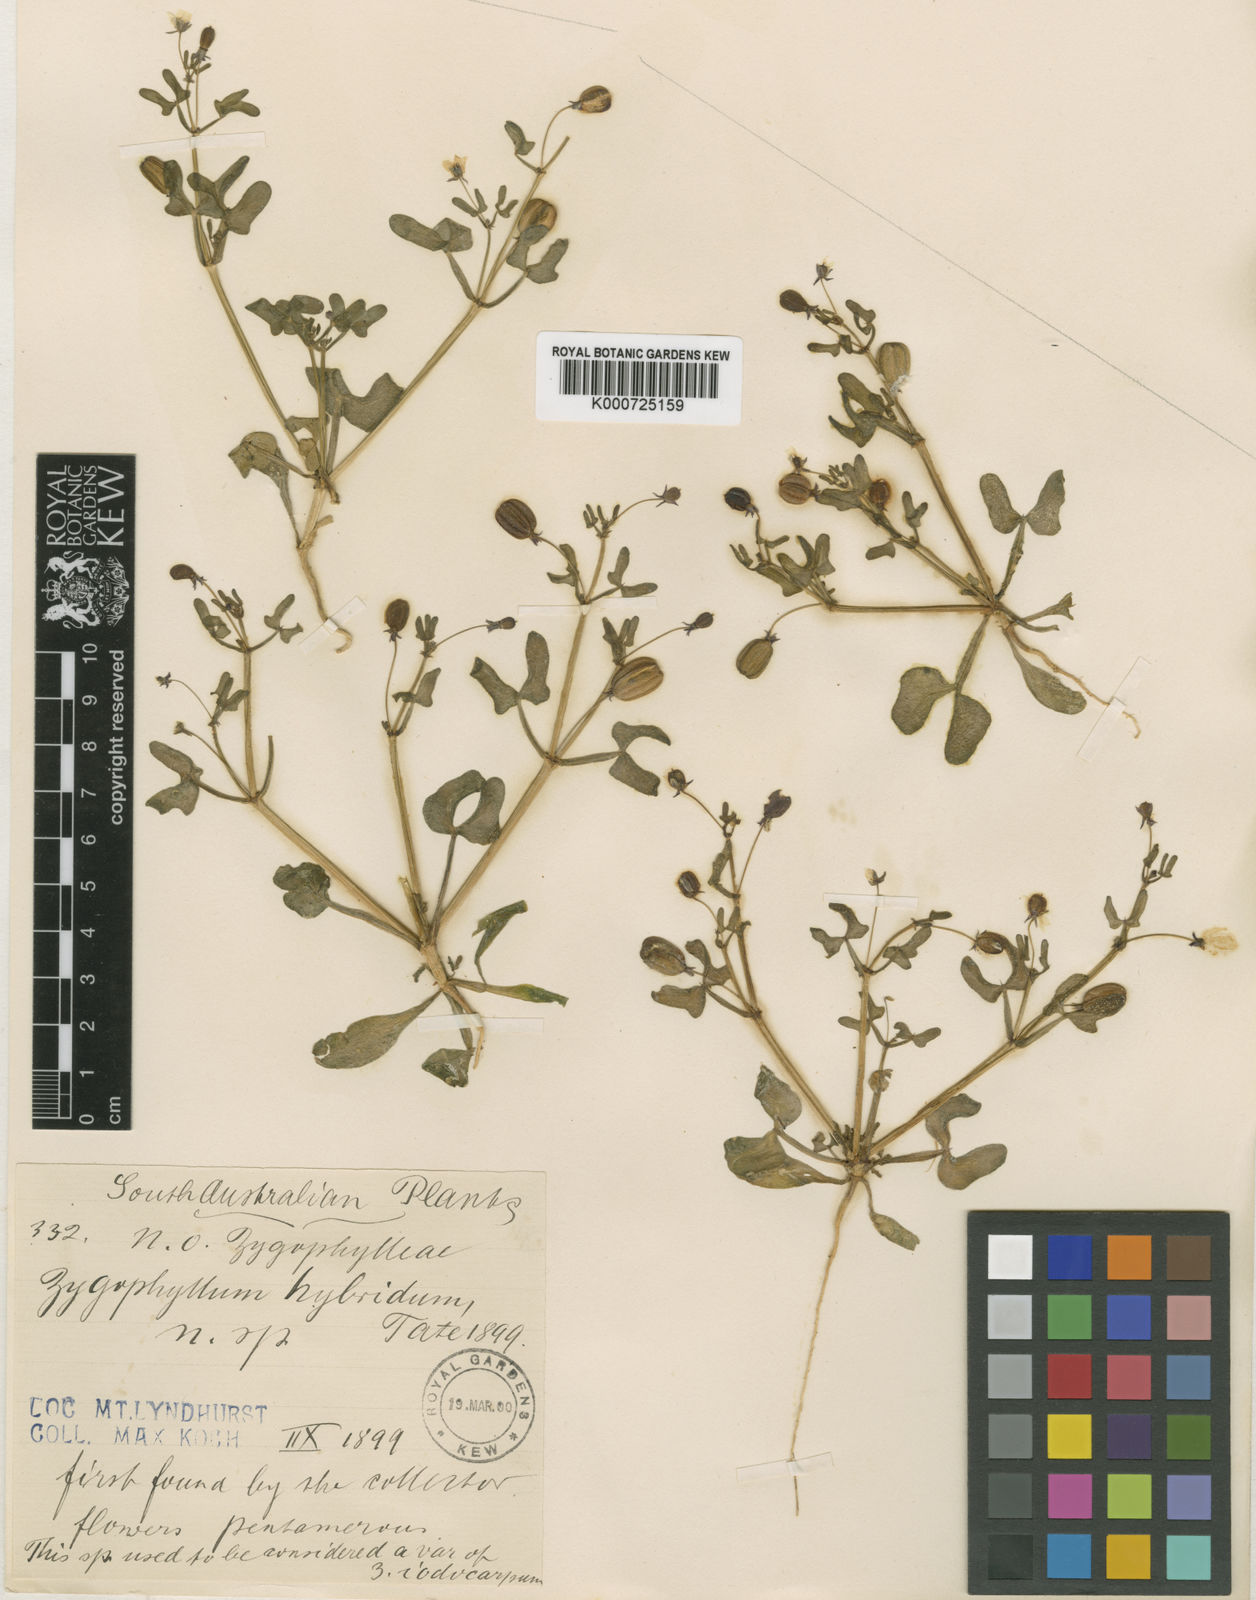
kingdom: Plantae
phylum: Tracheophyta
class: Magnoliopsida
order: Zygophyllales
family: Zygophyllaceae
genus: Roepera
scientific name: Roepera hybrida
